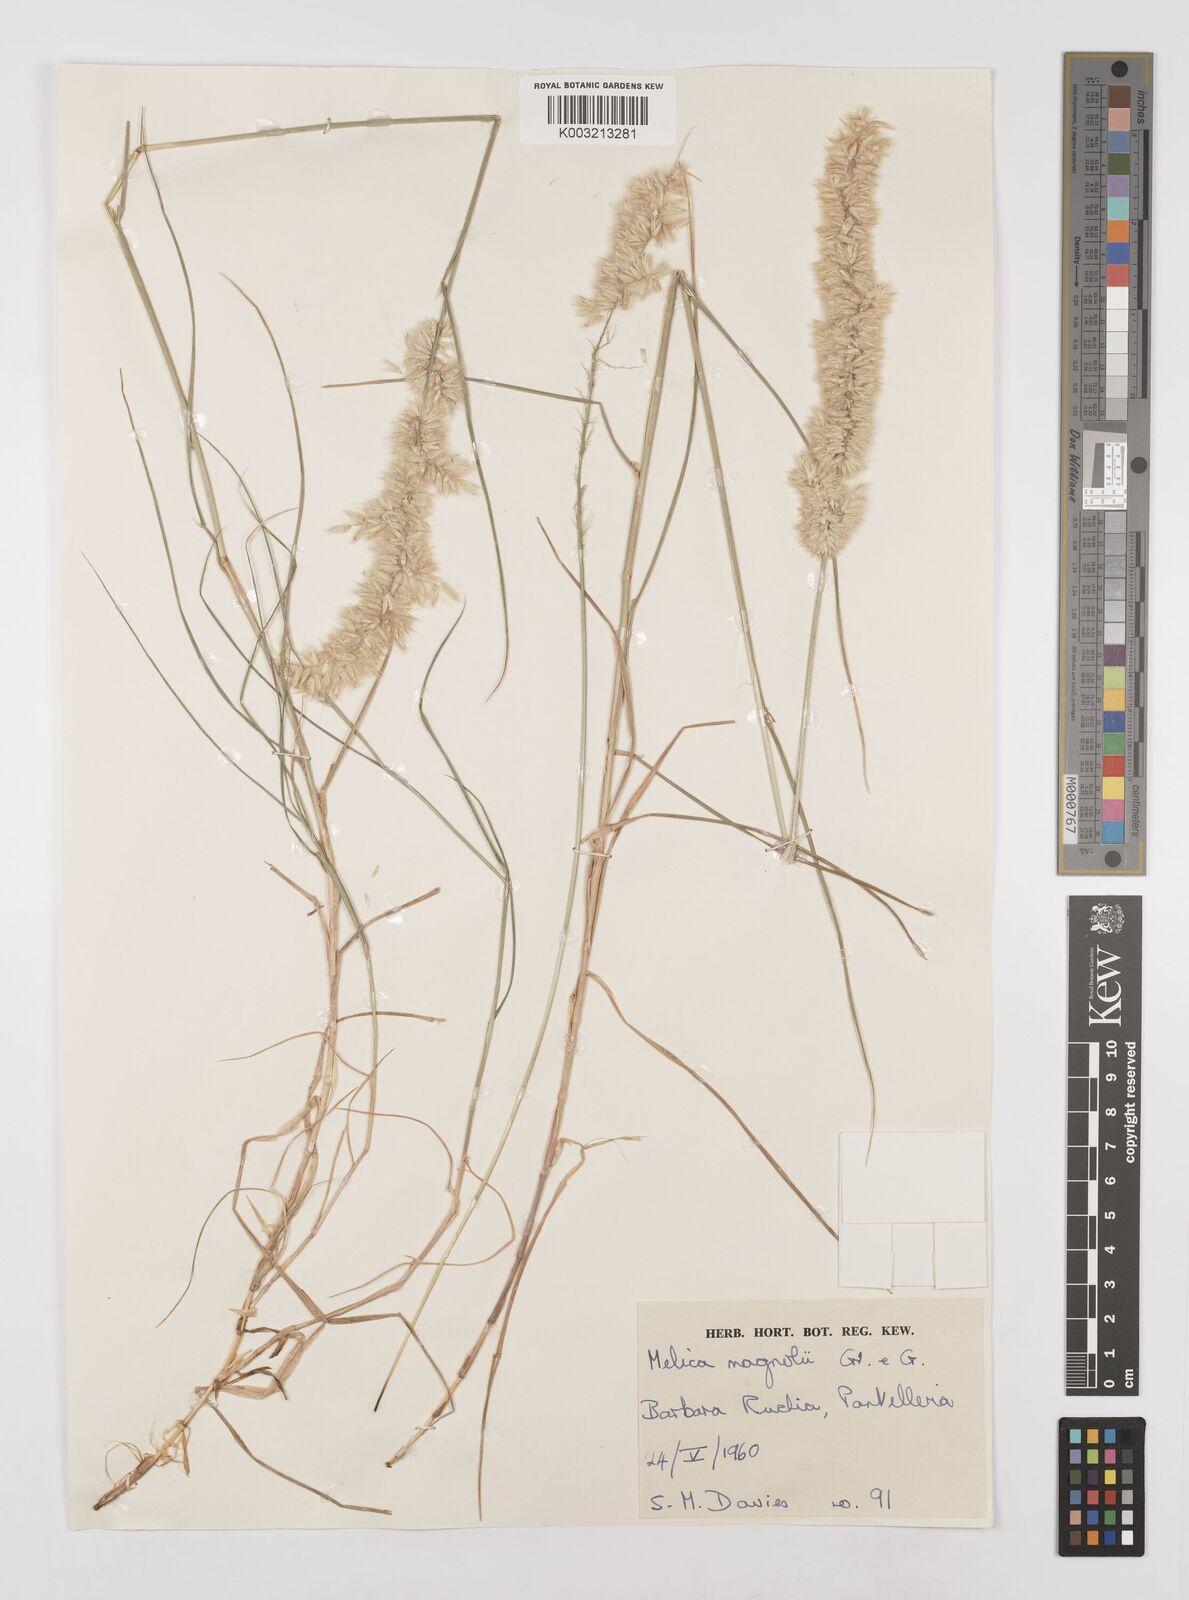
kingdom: Plantae
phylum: Tracheophyta
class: Liliopsida
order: Poales
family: Poaceae
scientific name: Poaceae
